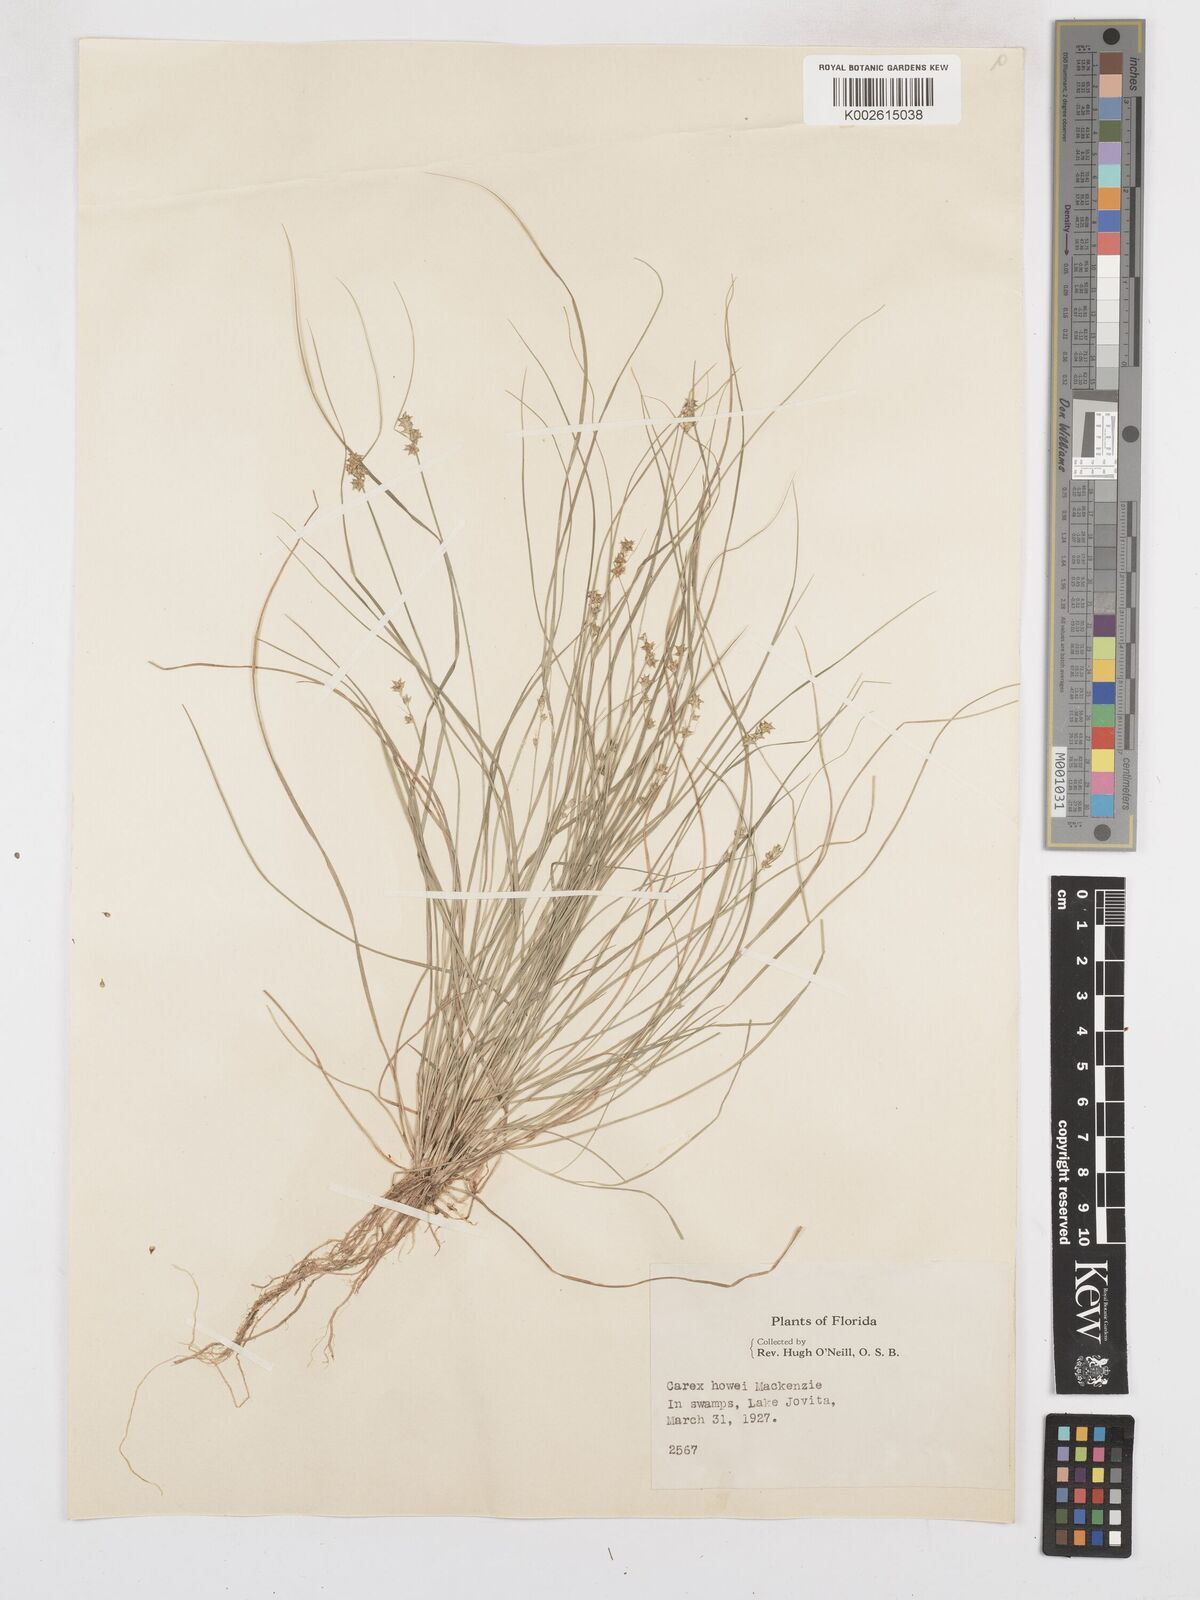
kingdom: Plantae
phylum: Tracheophyta
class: Liliopsida
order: Poales
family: Cyperaceae
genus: Carex
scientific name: Carex atlantica
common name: Atlantic sedge
